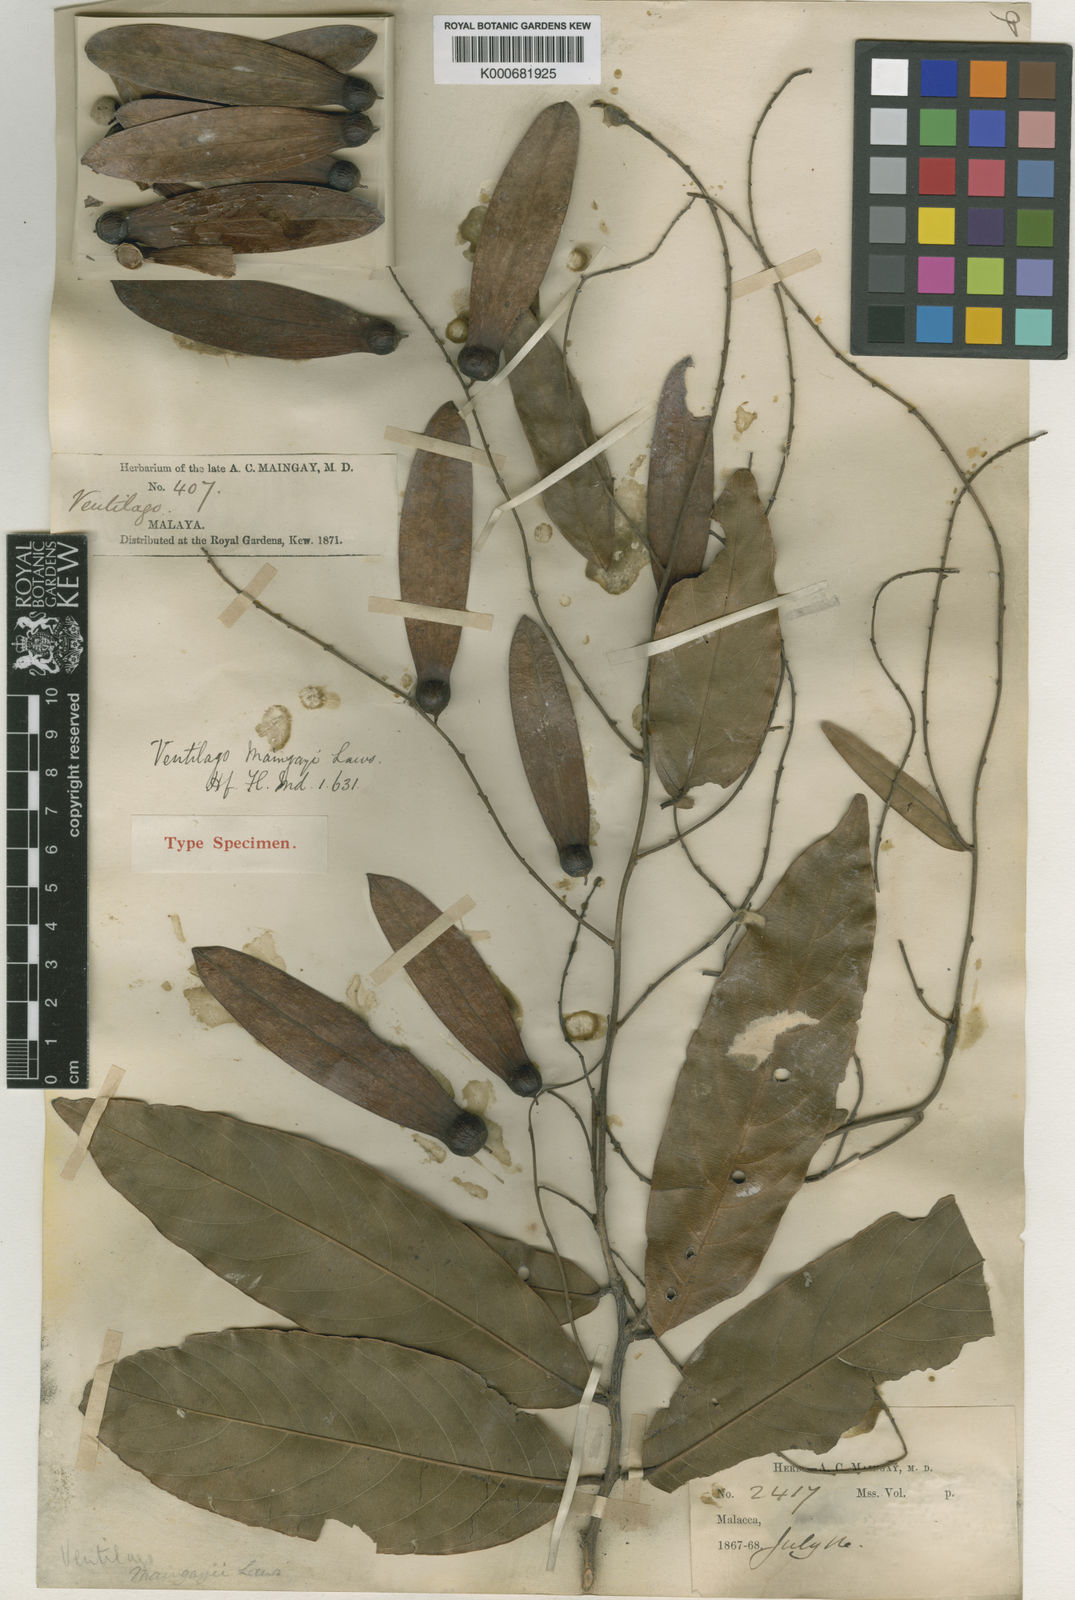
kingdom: Plantae
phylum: Tracheophyta
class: Magnoliopsida
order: Rosales
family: Rhamnaceae
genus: Ventilago
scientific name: Ventilago maingayi
